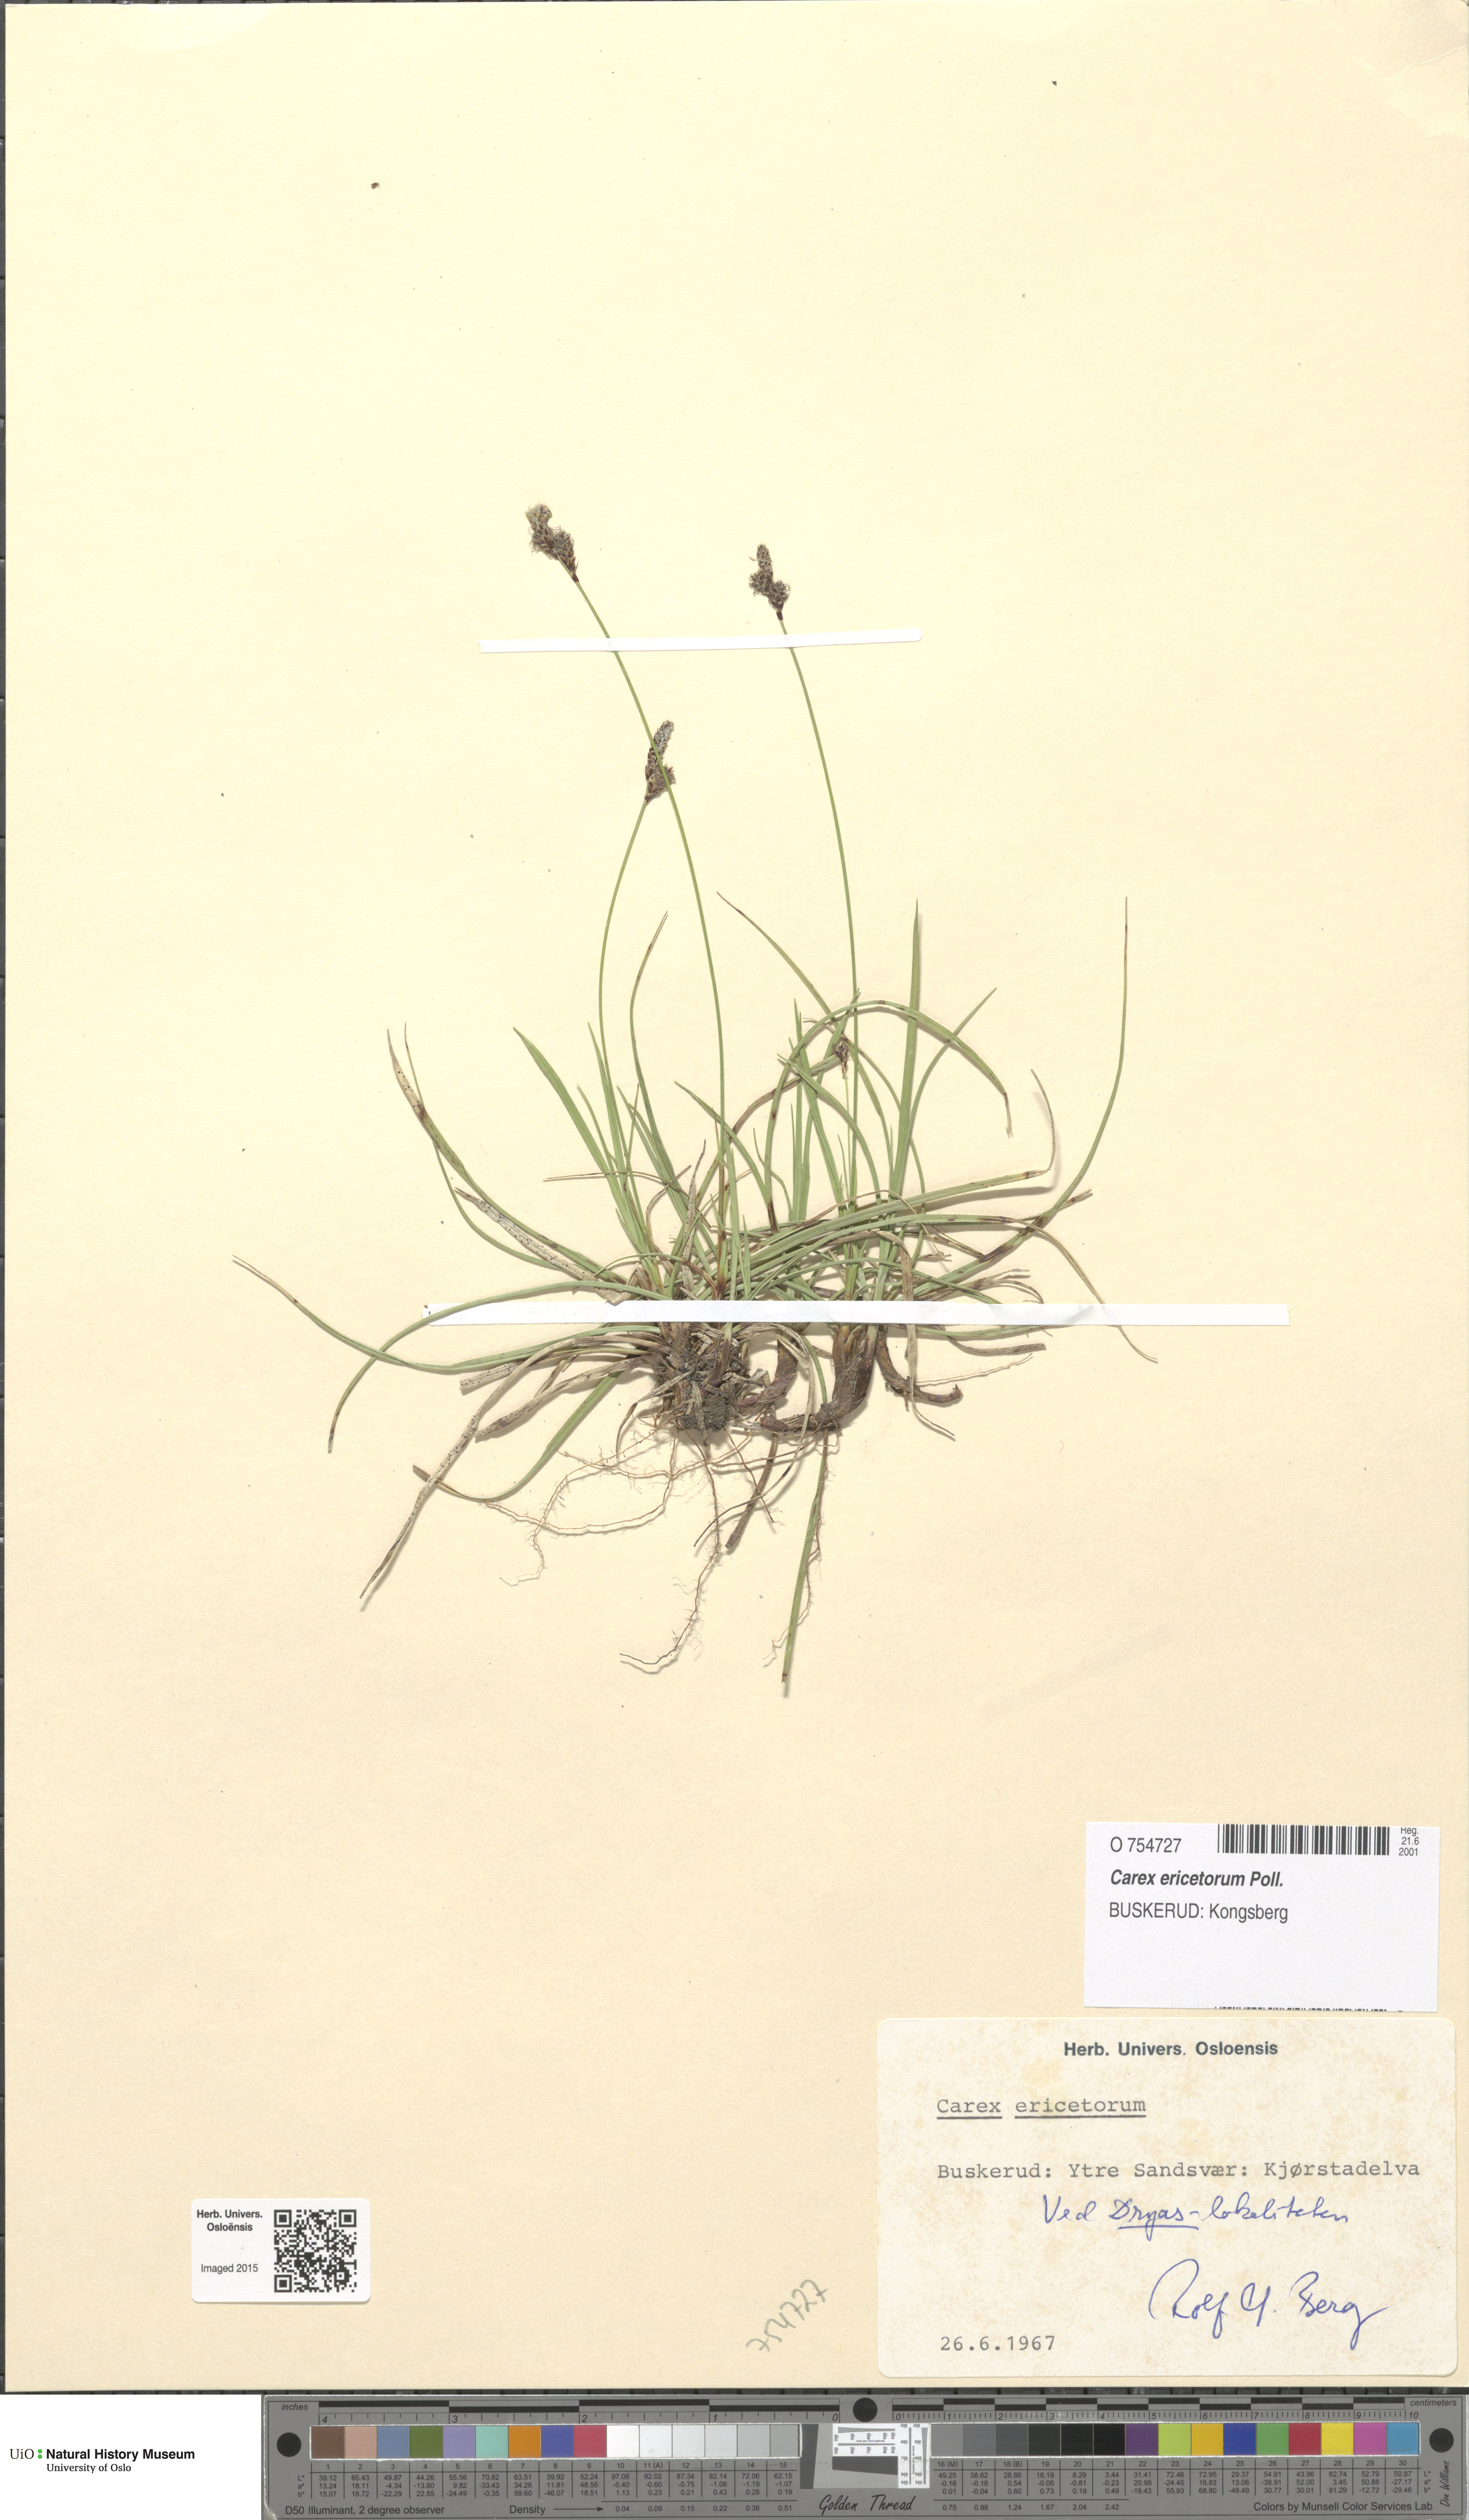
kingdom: Plantae
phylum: Tracheophyta
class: Liliopsida
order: Poales
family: Cyperaceae
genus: Carex
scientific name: Carex ericetorum
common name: Rare spring-sedge
